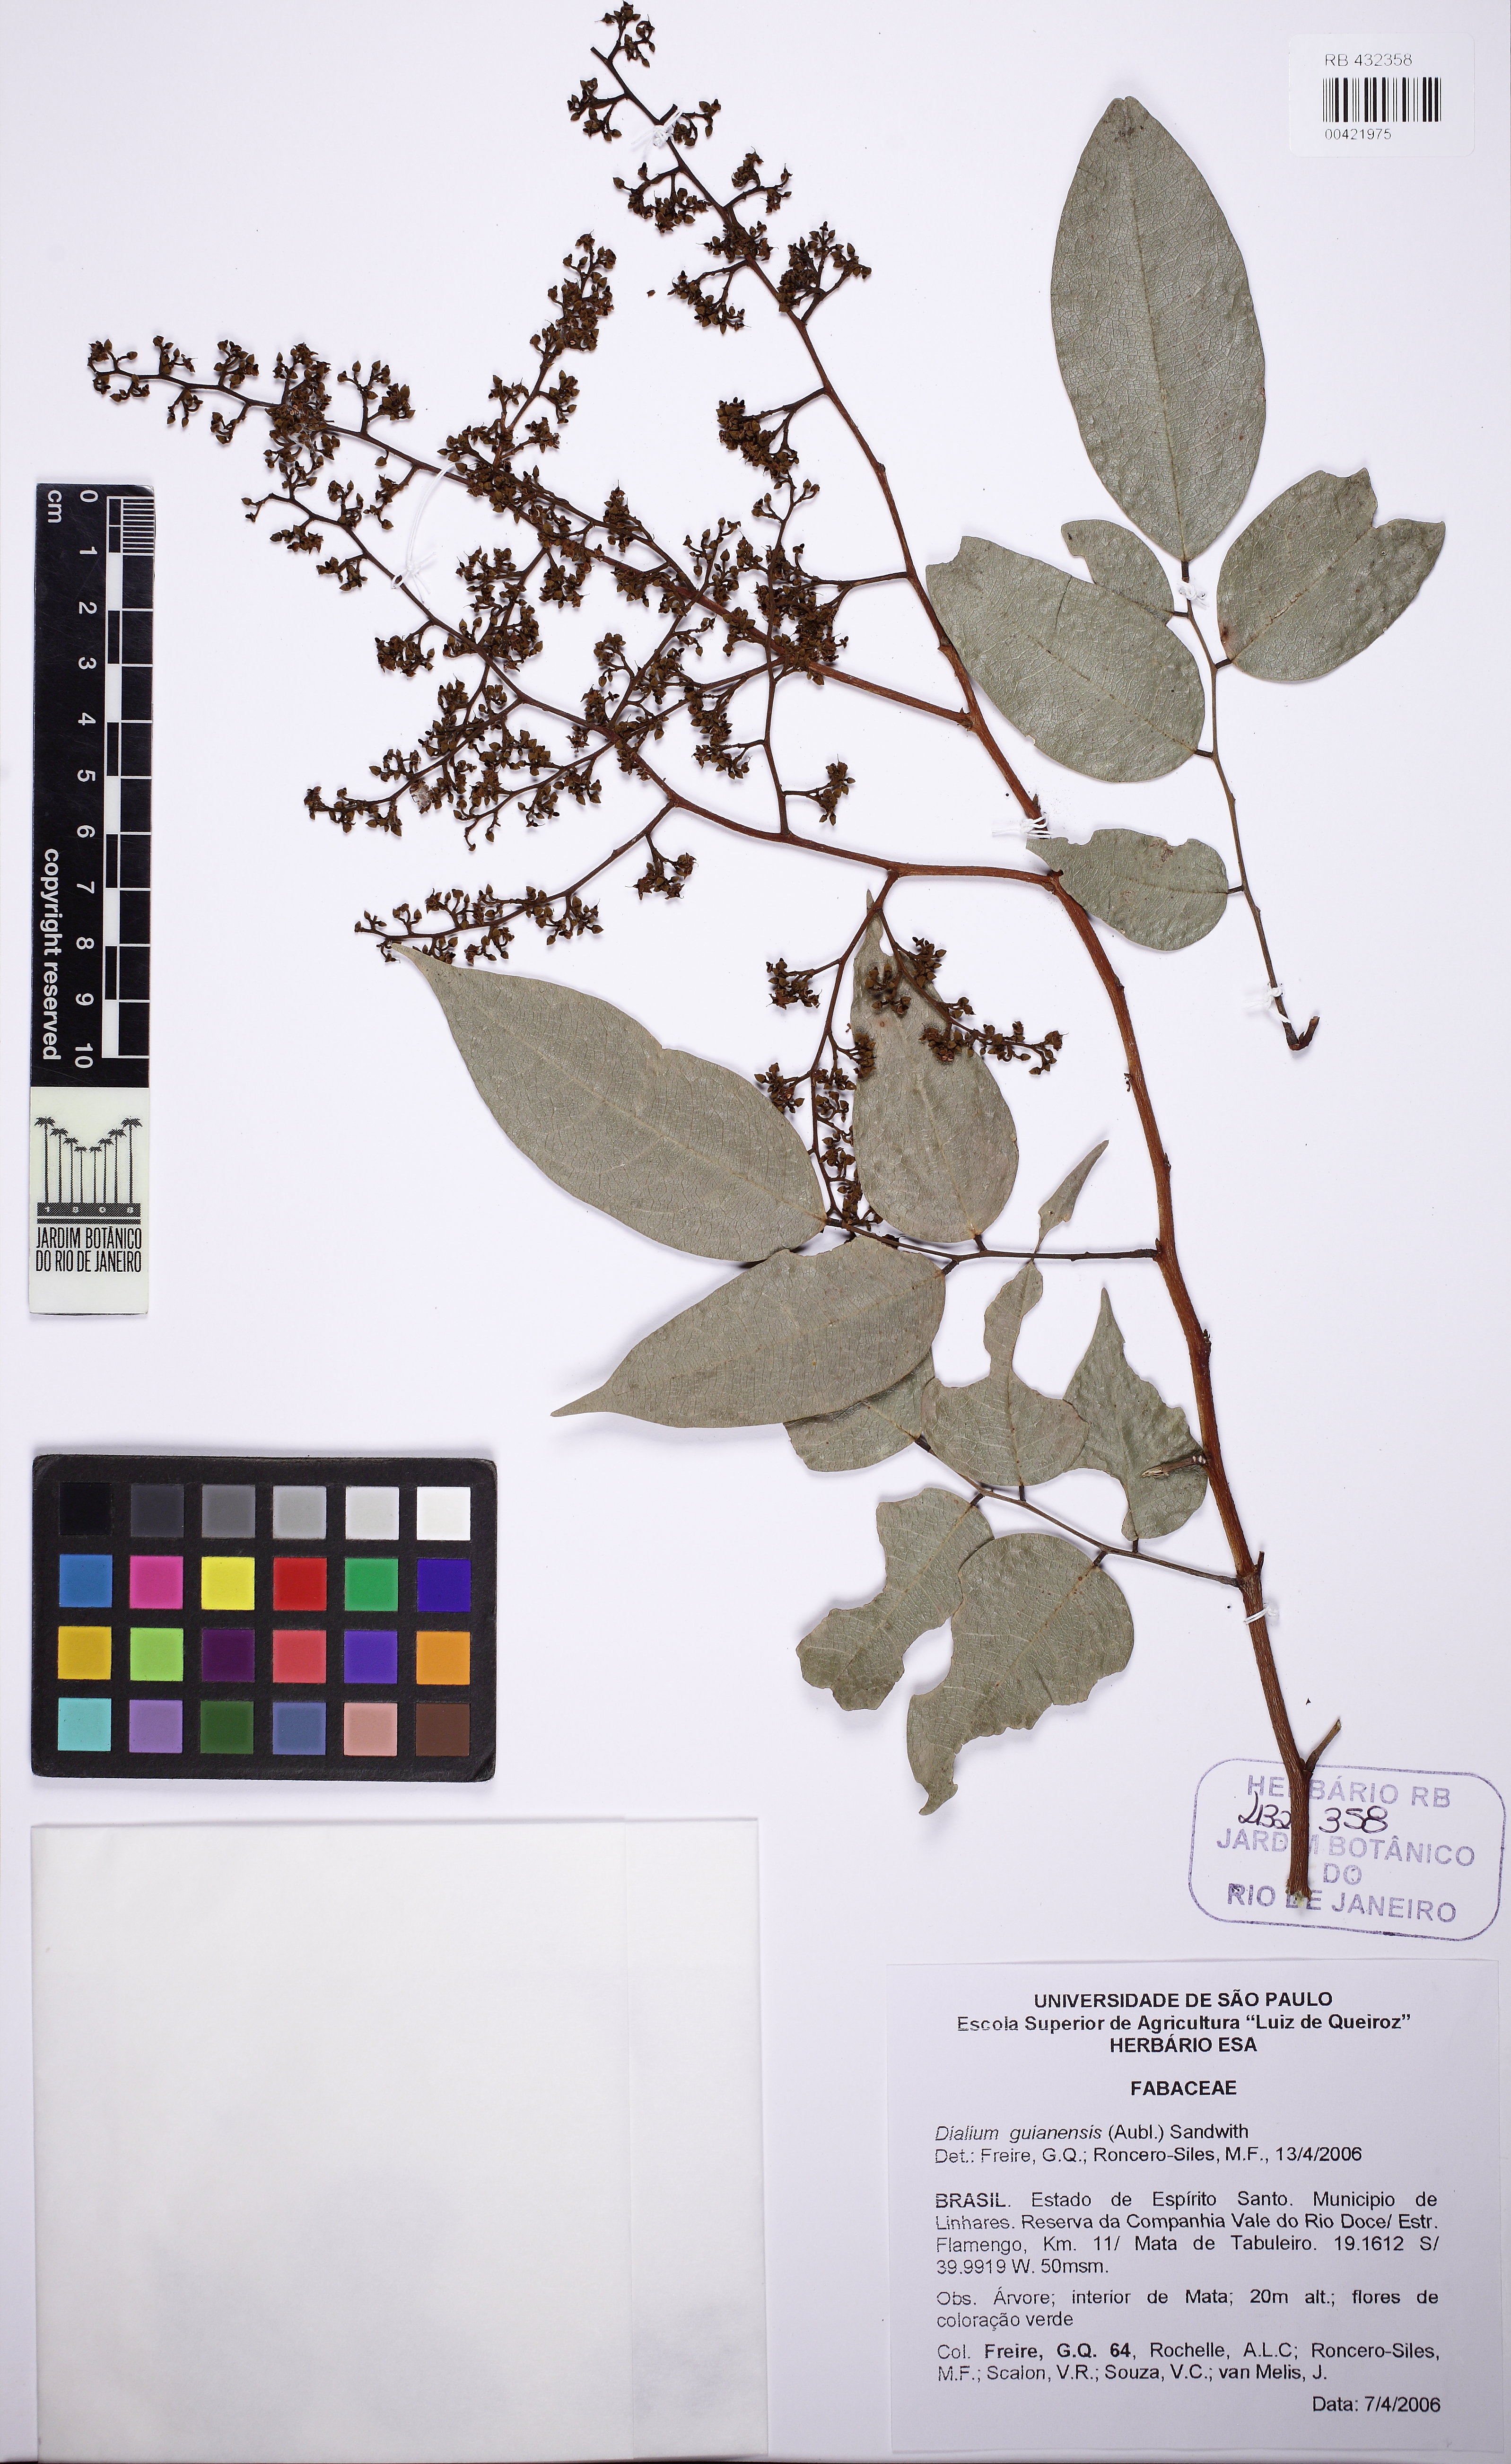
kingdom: Plantae
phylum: Tracheophyta
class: Magnoliopsida
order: Fabales
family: Fabaceae
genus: Dialium
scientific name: Dialium guianense
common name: Ironwood
